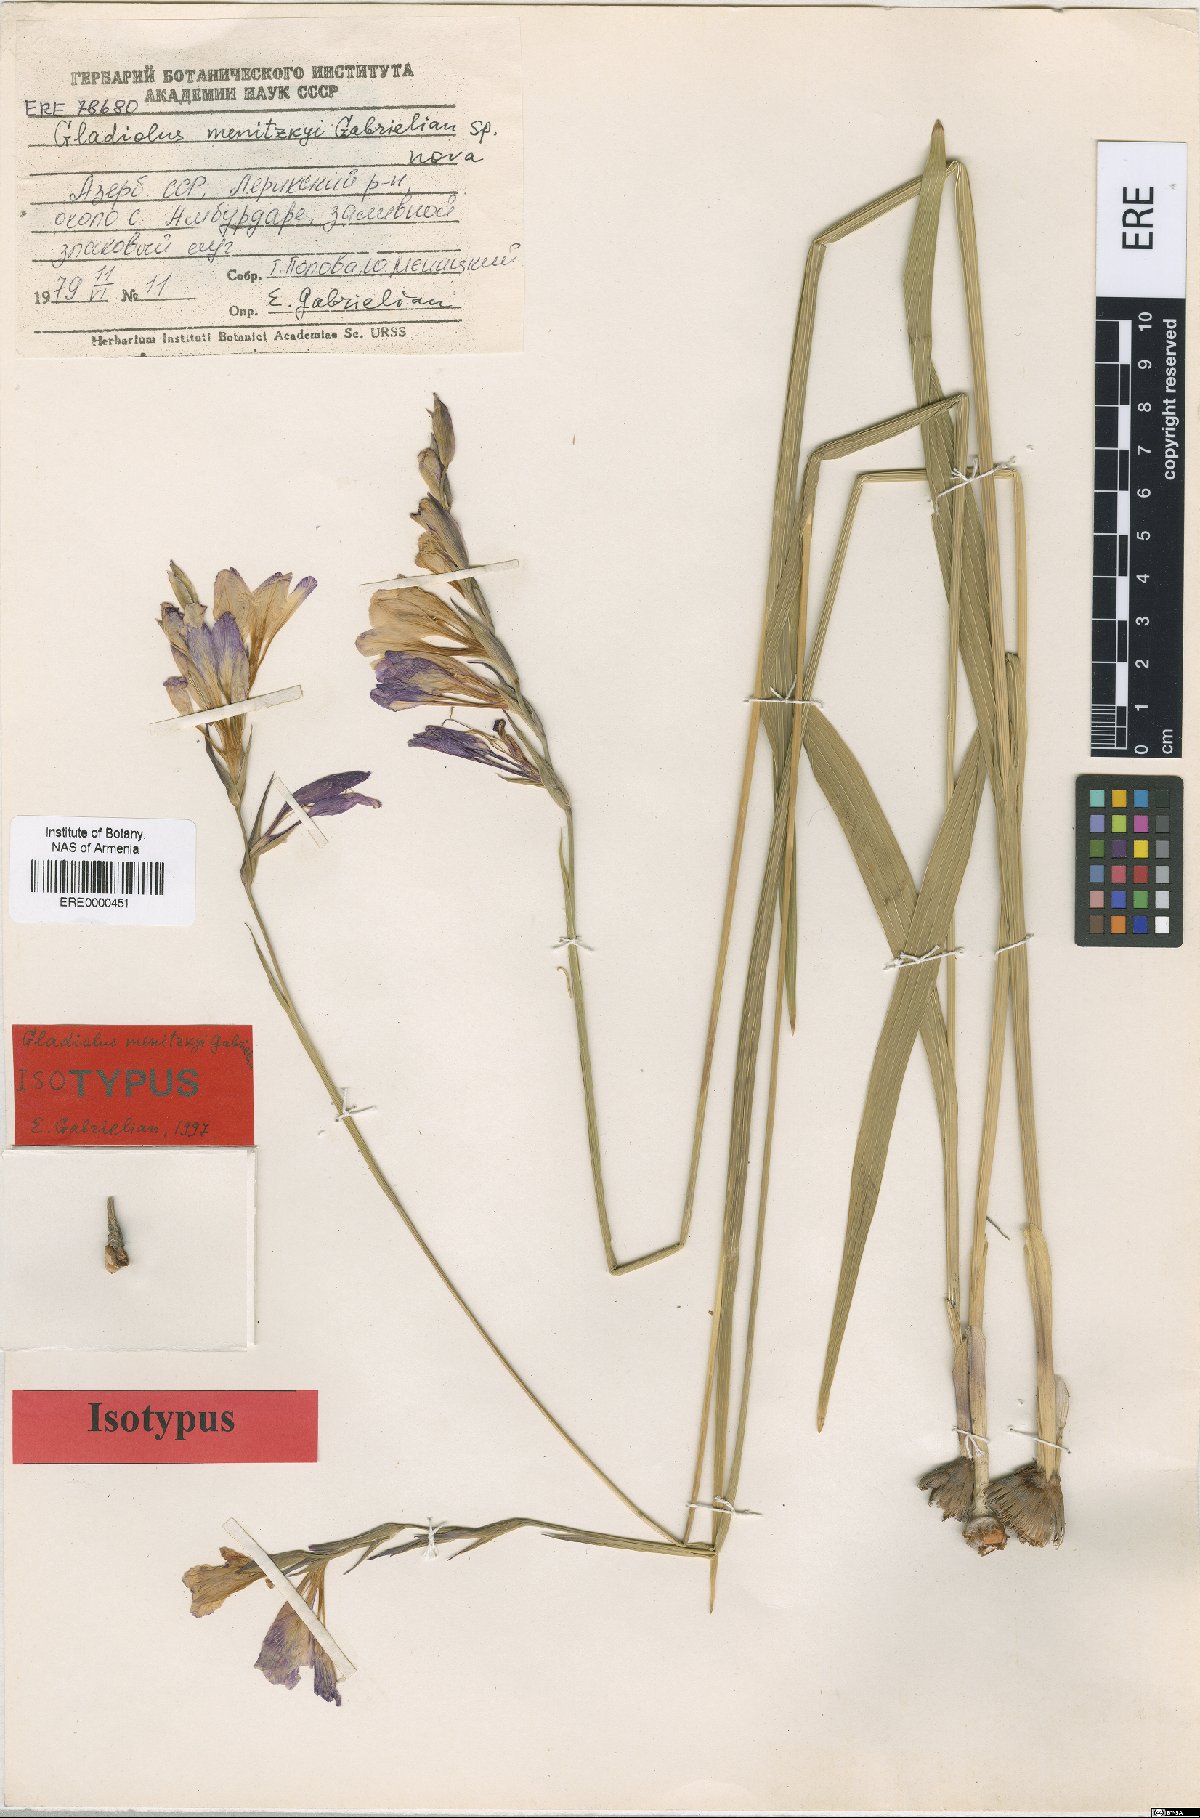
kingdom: Plantae
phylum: Tracheophyta
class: Liliopsida
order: Asparagales
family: Iridaceae
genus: Gladiolus
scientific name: Gladiolus menitskyi
